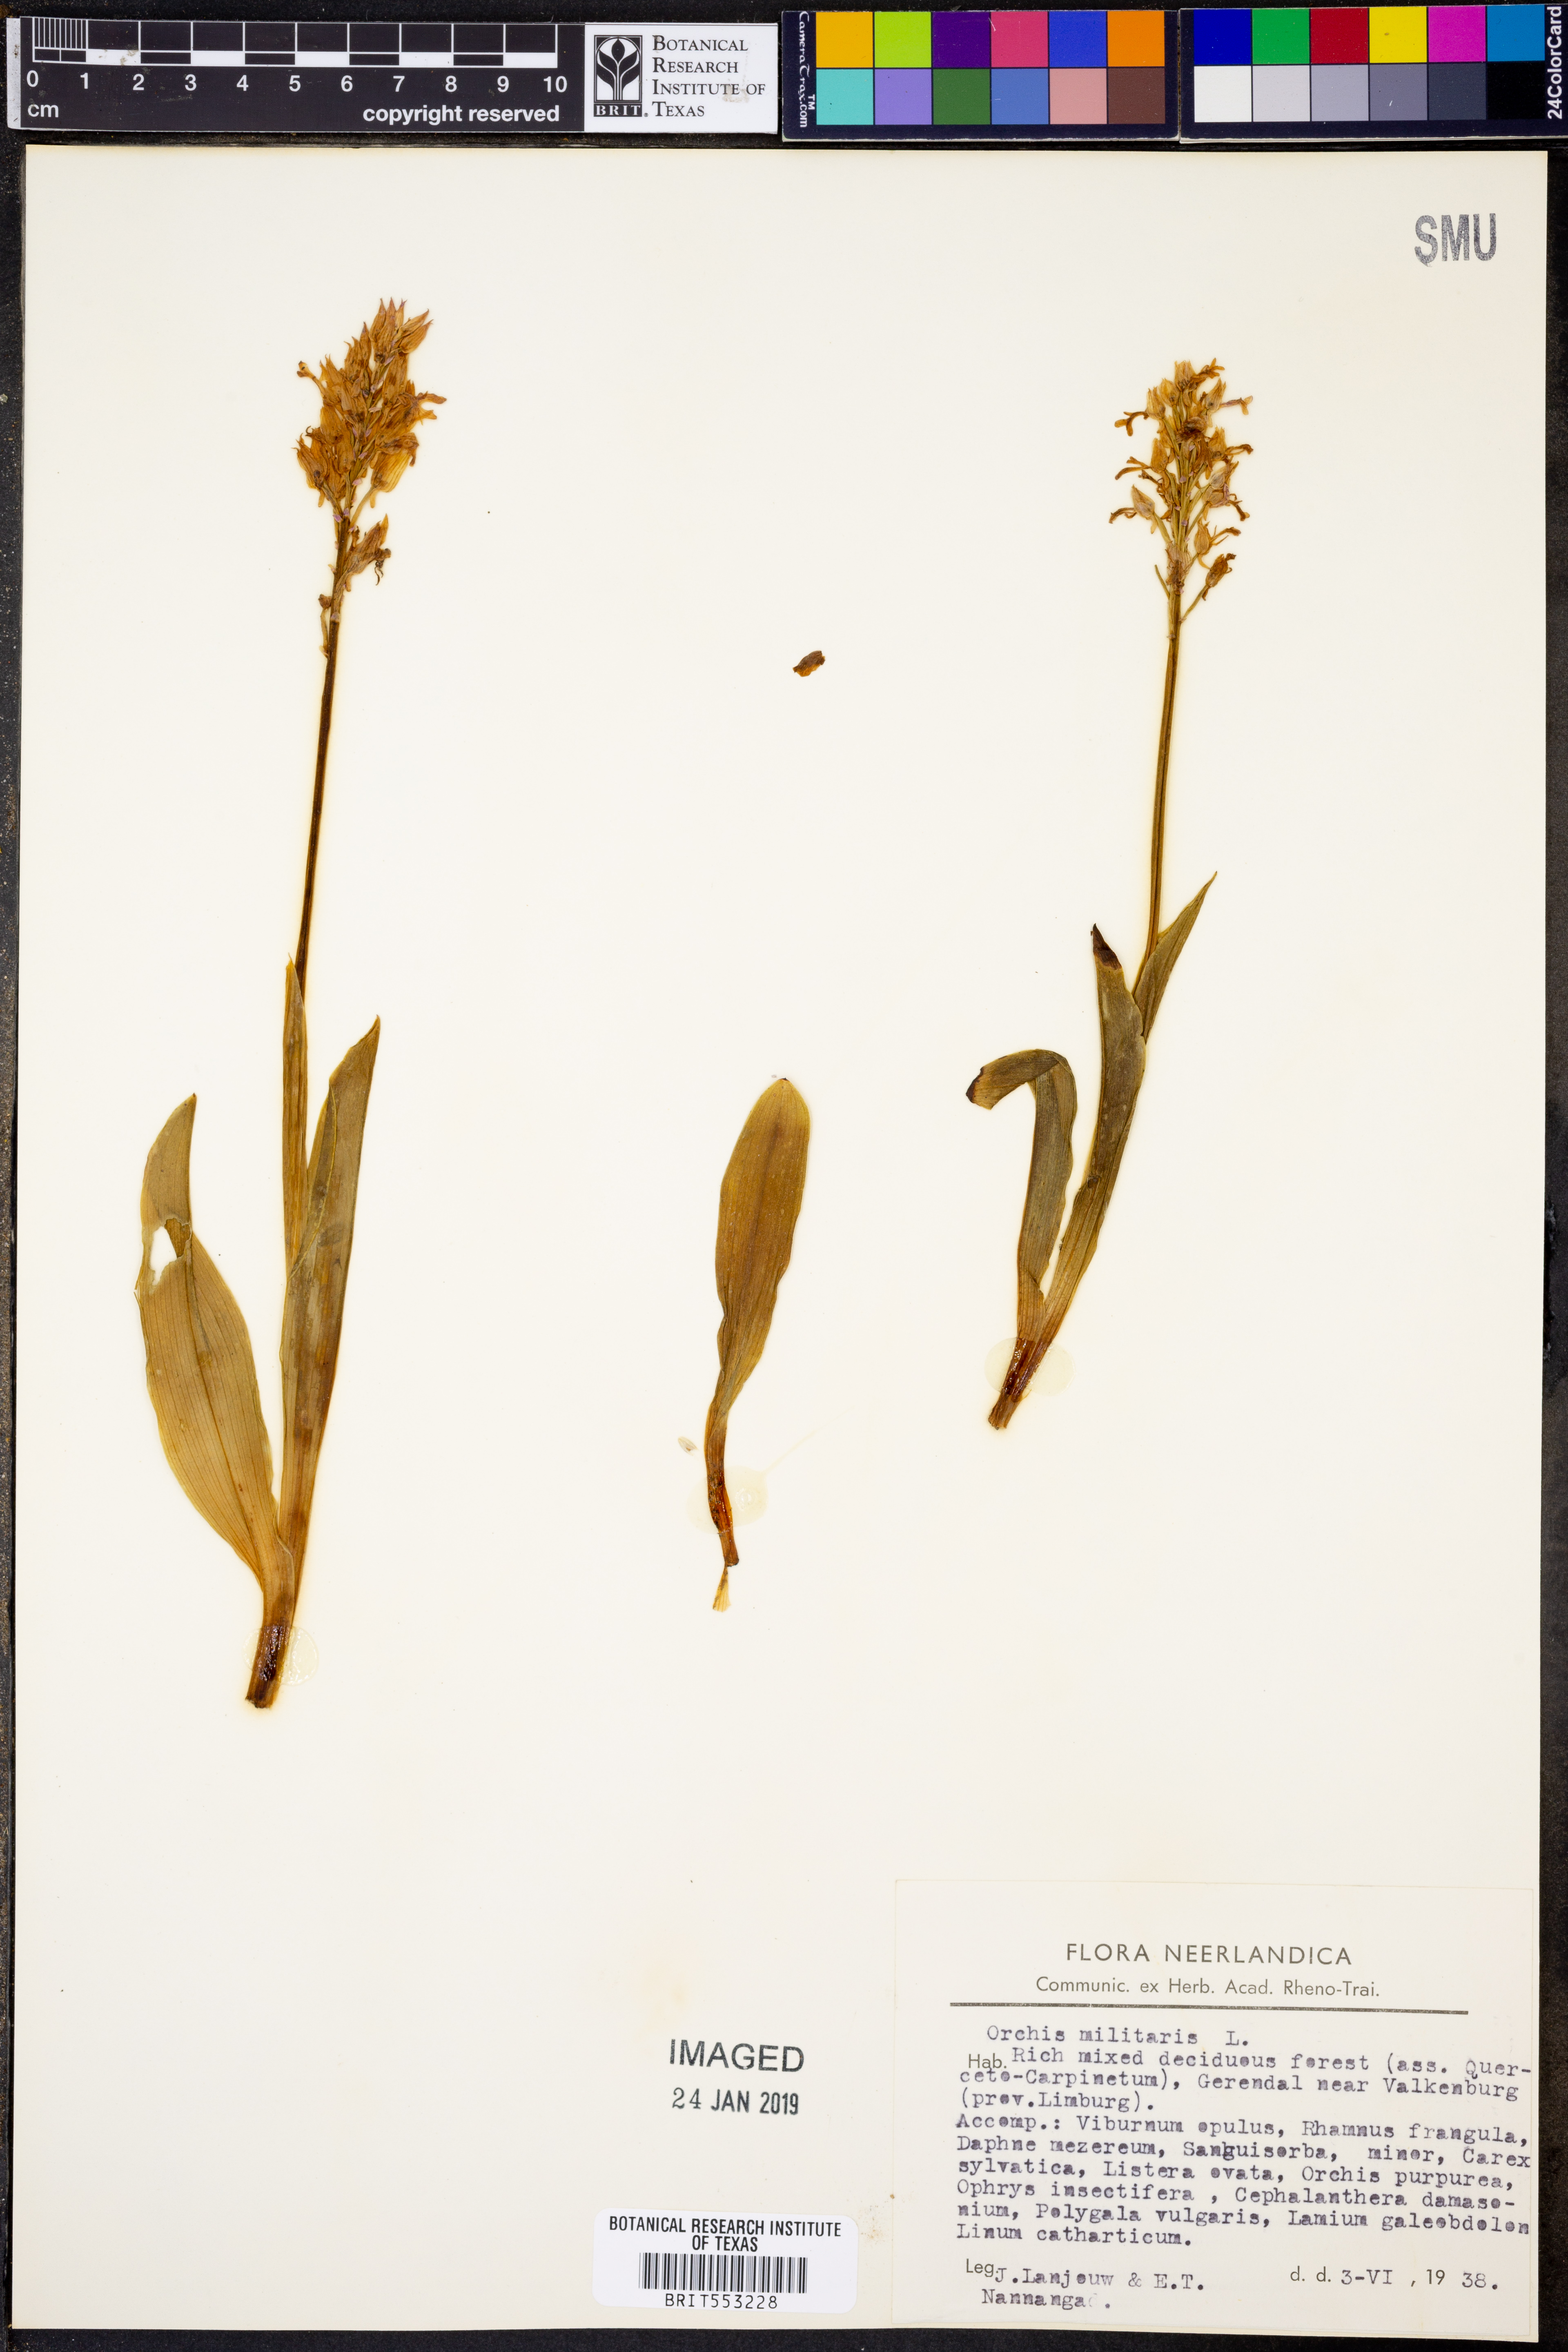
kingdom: Plantae
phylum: Tracheophyta
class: Liliopsida
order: Asparagales
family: Orchidaceae
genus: Orchis
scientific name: Orchis militaris
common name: Military orchid
